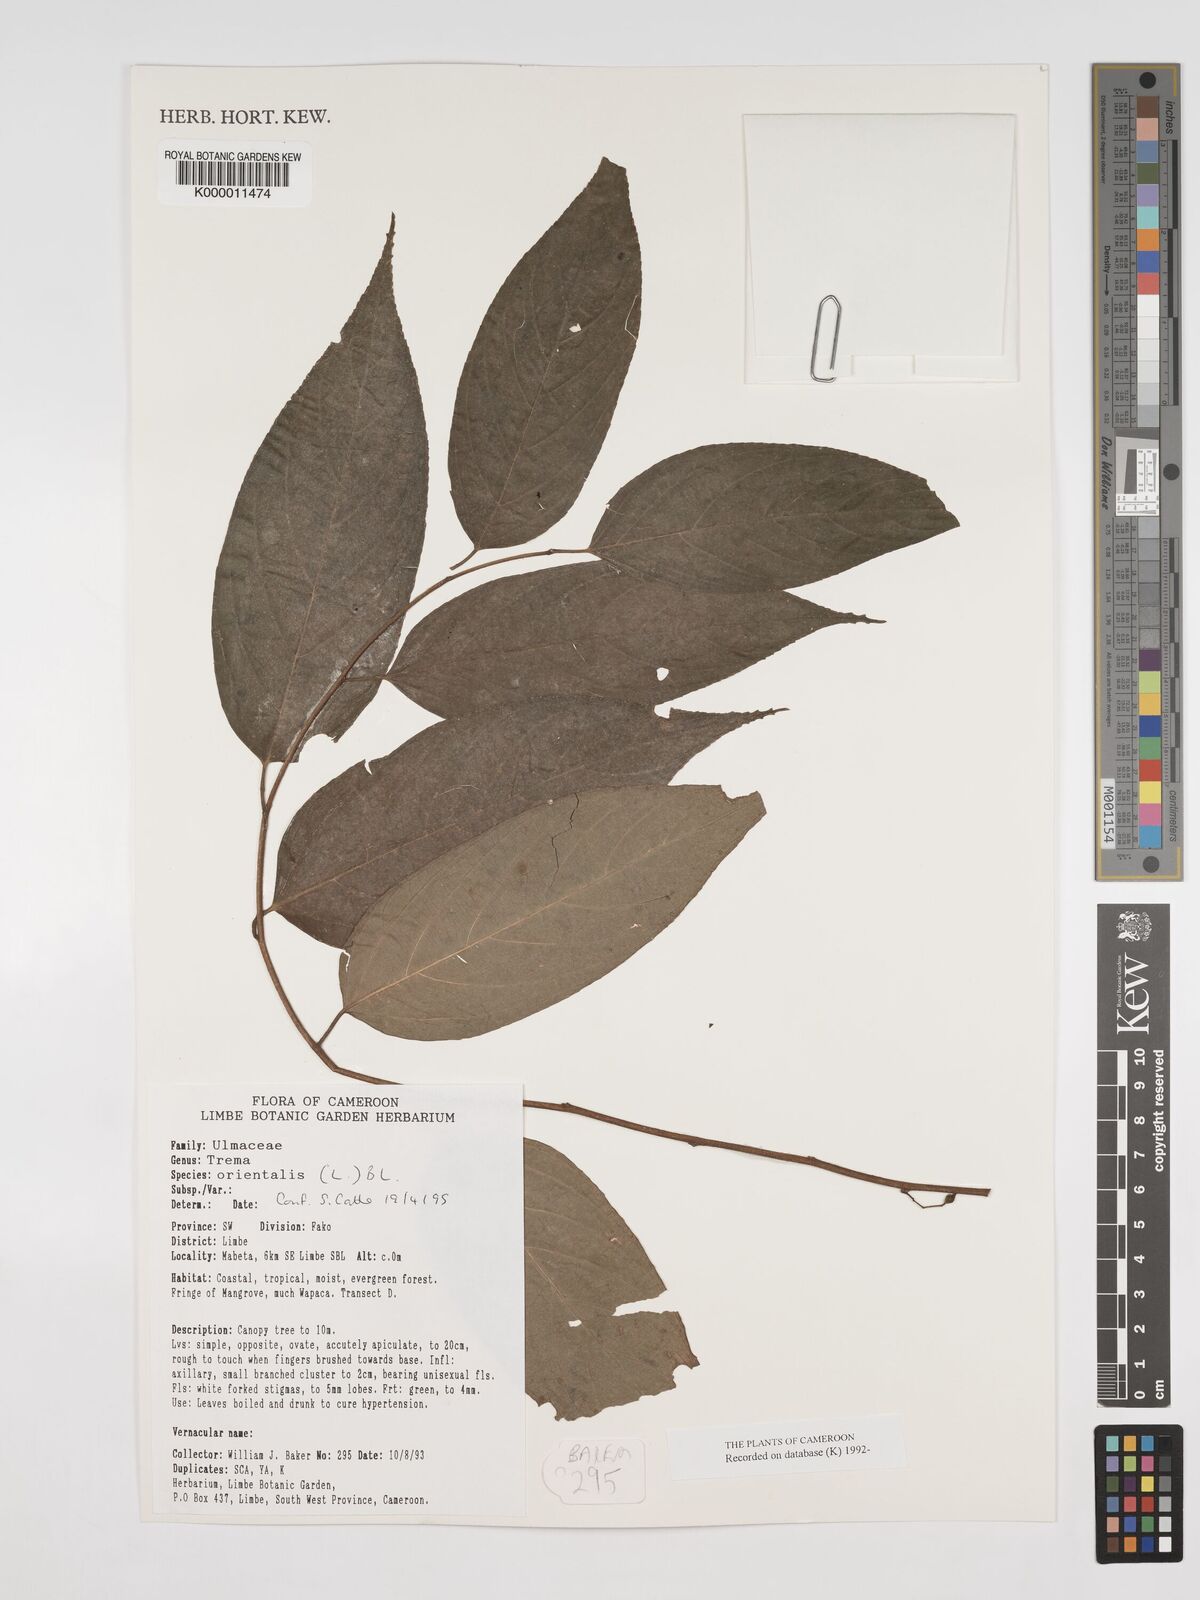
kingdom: Plantae
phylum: Tracheophyta
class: Magnoliopsida
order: Rosales
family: Cannabaceae
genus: Trema
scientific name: Trema
